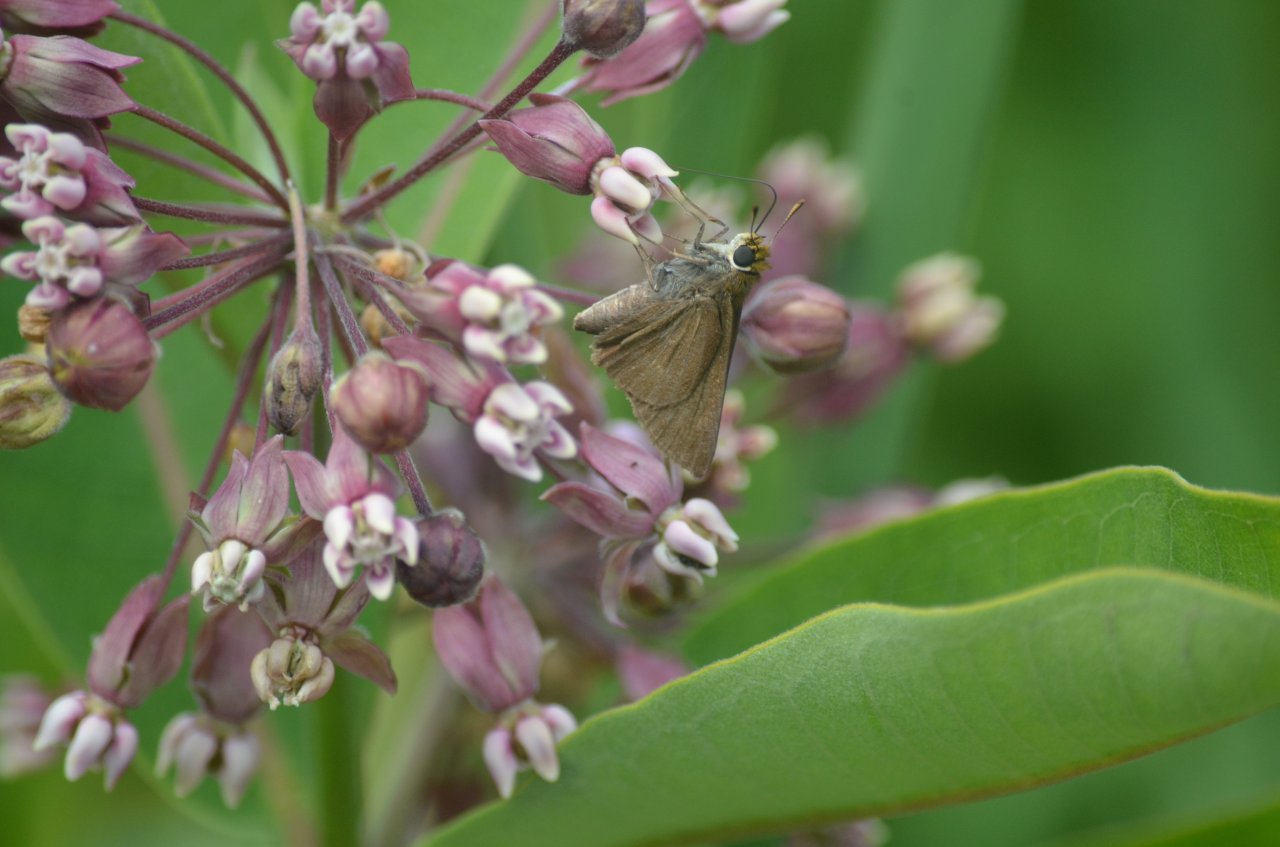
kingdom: Animalia
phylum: Arthropoda
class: Insecta
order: Lepidoptera
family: Hesperiidae
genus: Euphyes
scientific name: Euphyes vestris
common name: Dun Skipper
